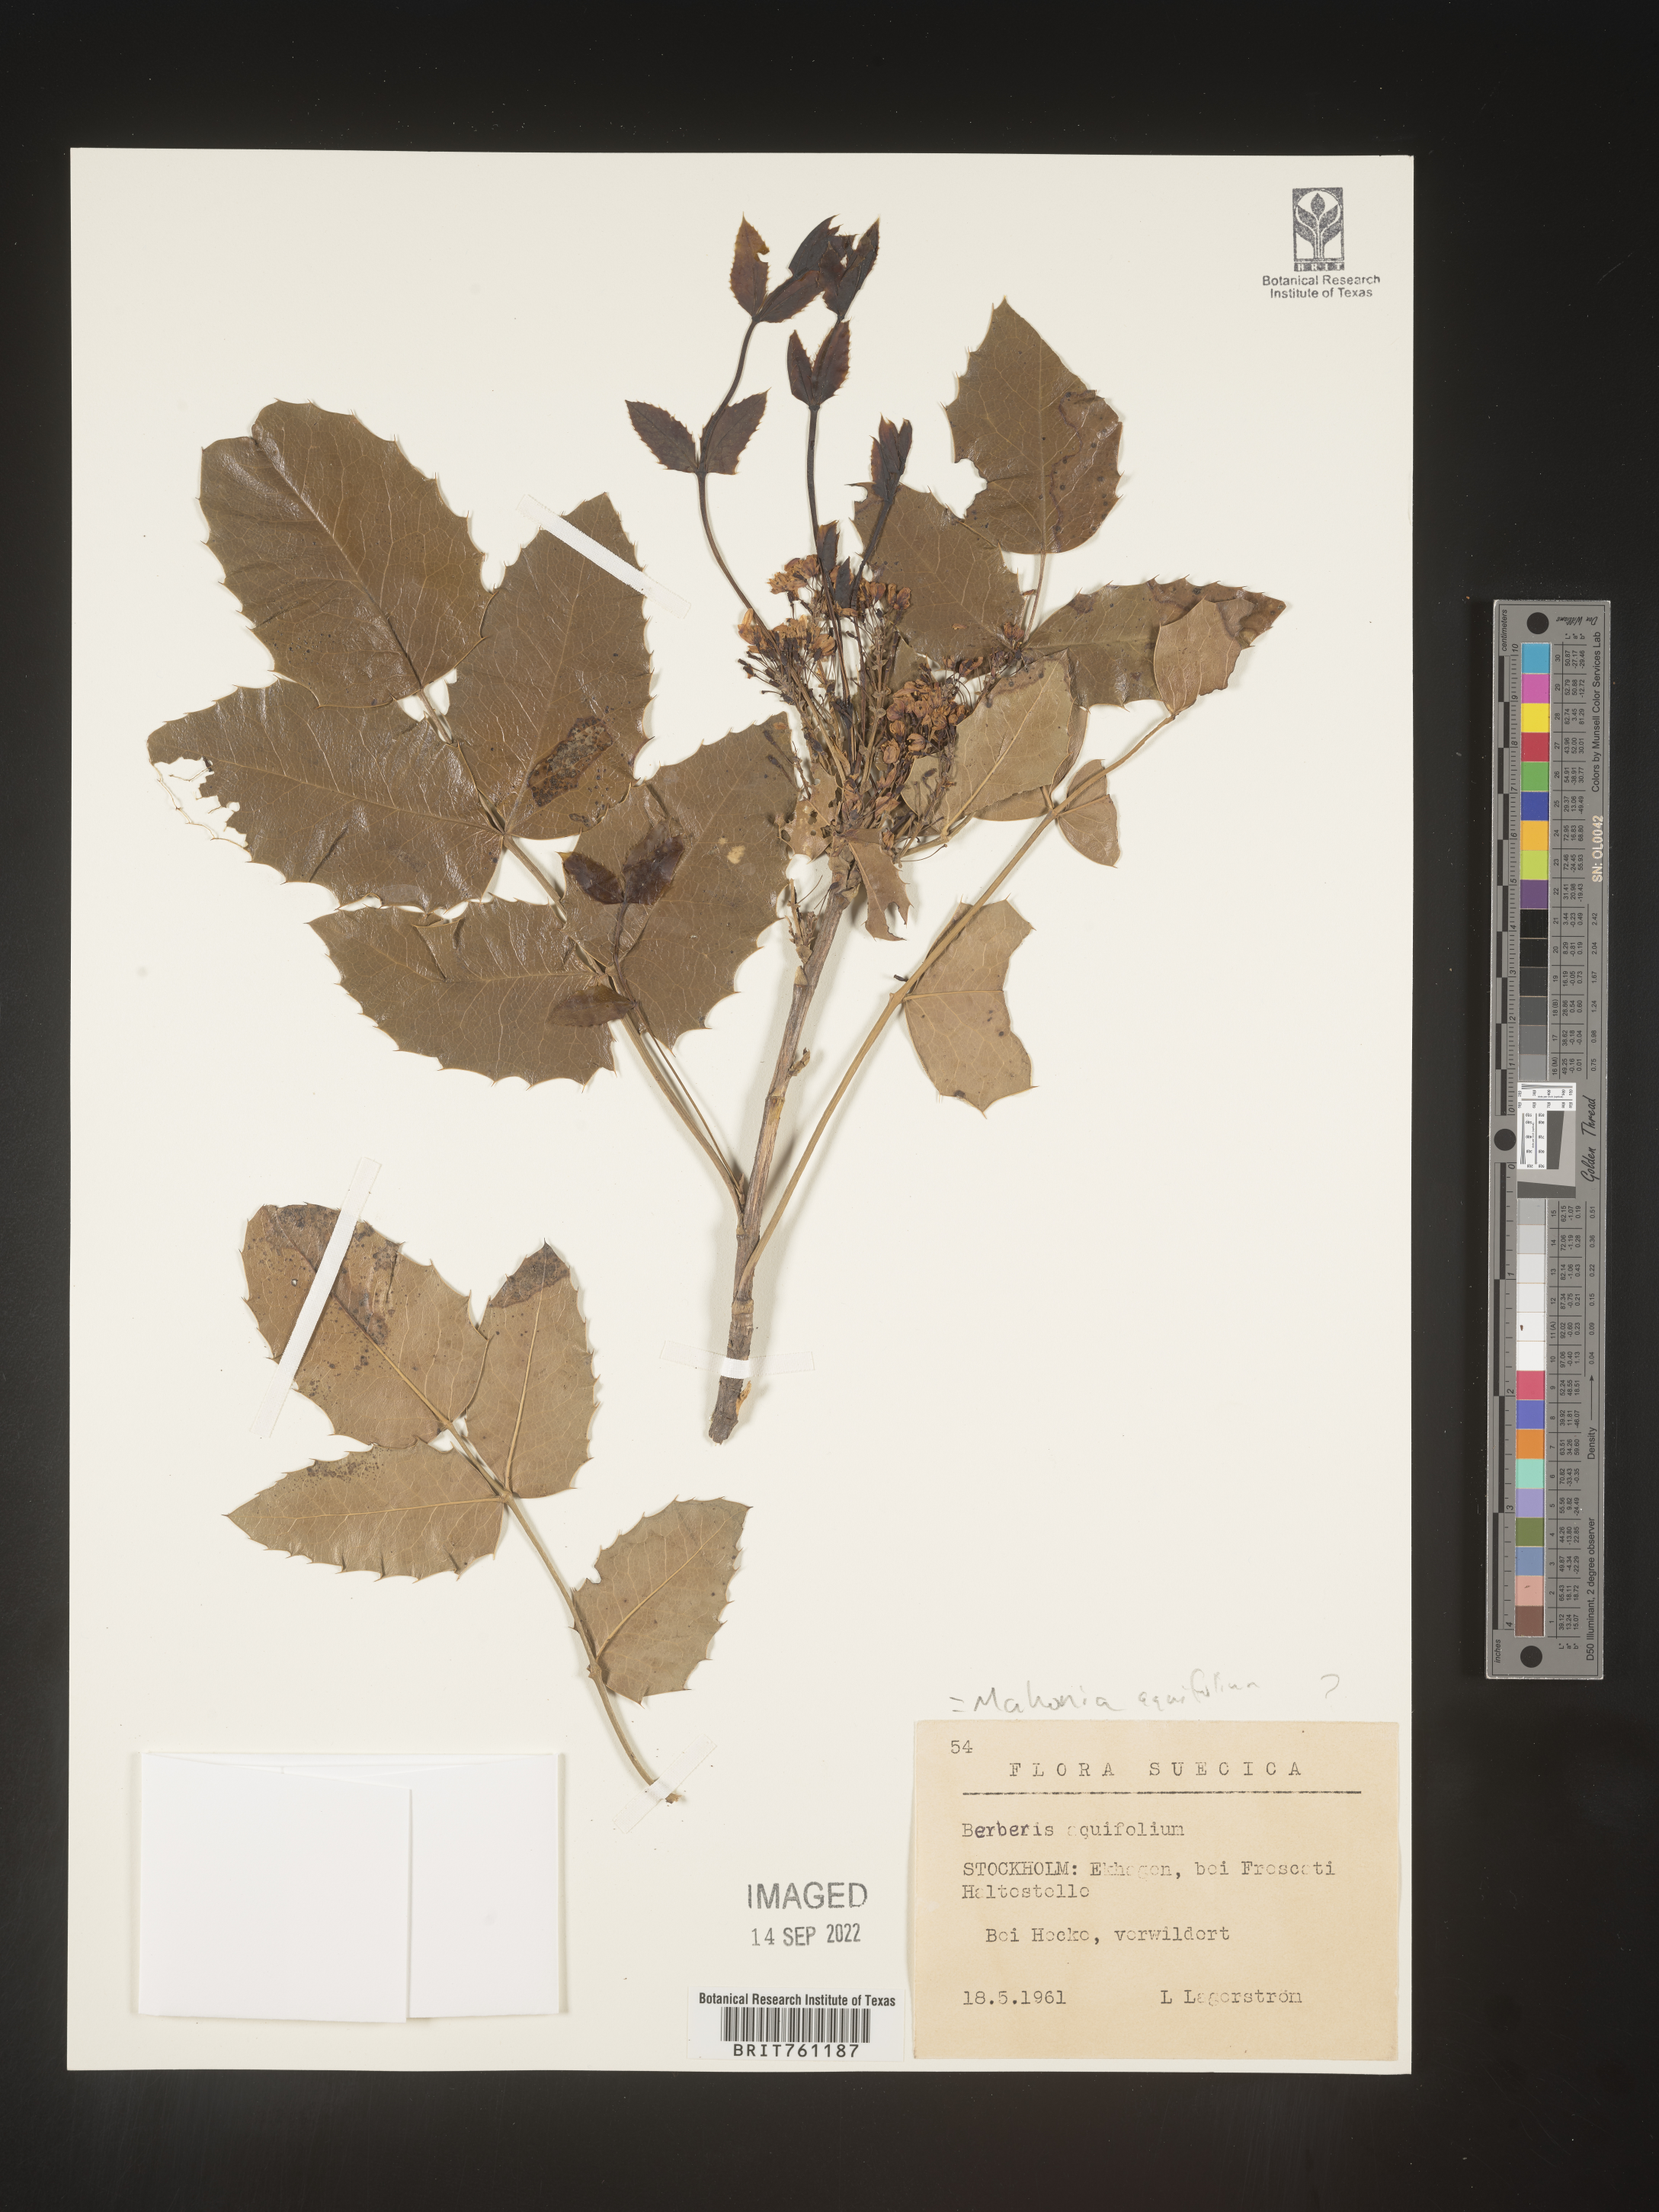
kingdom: Plantae
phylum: Tracheophyta
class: Magnoliopsida
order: Ranunculales
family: Berberidaceae
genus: Mahonia
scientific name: Mahonia
